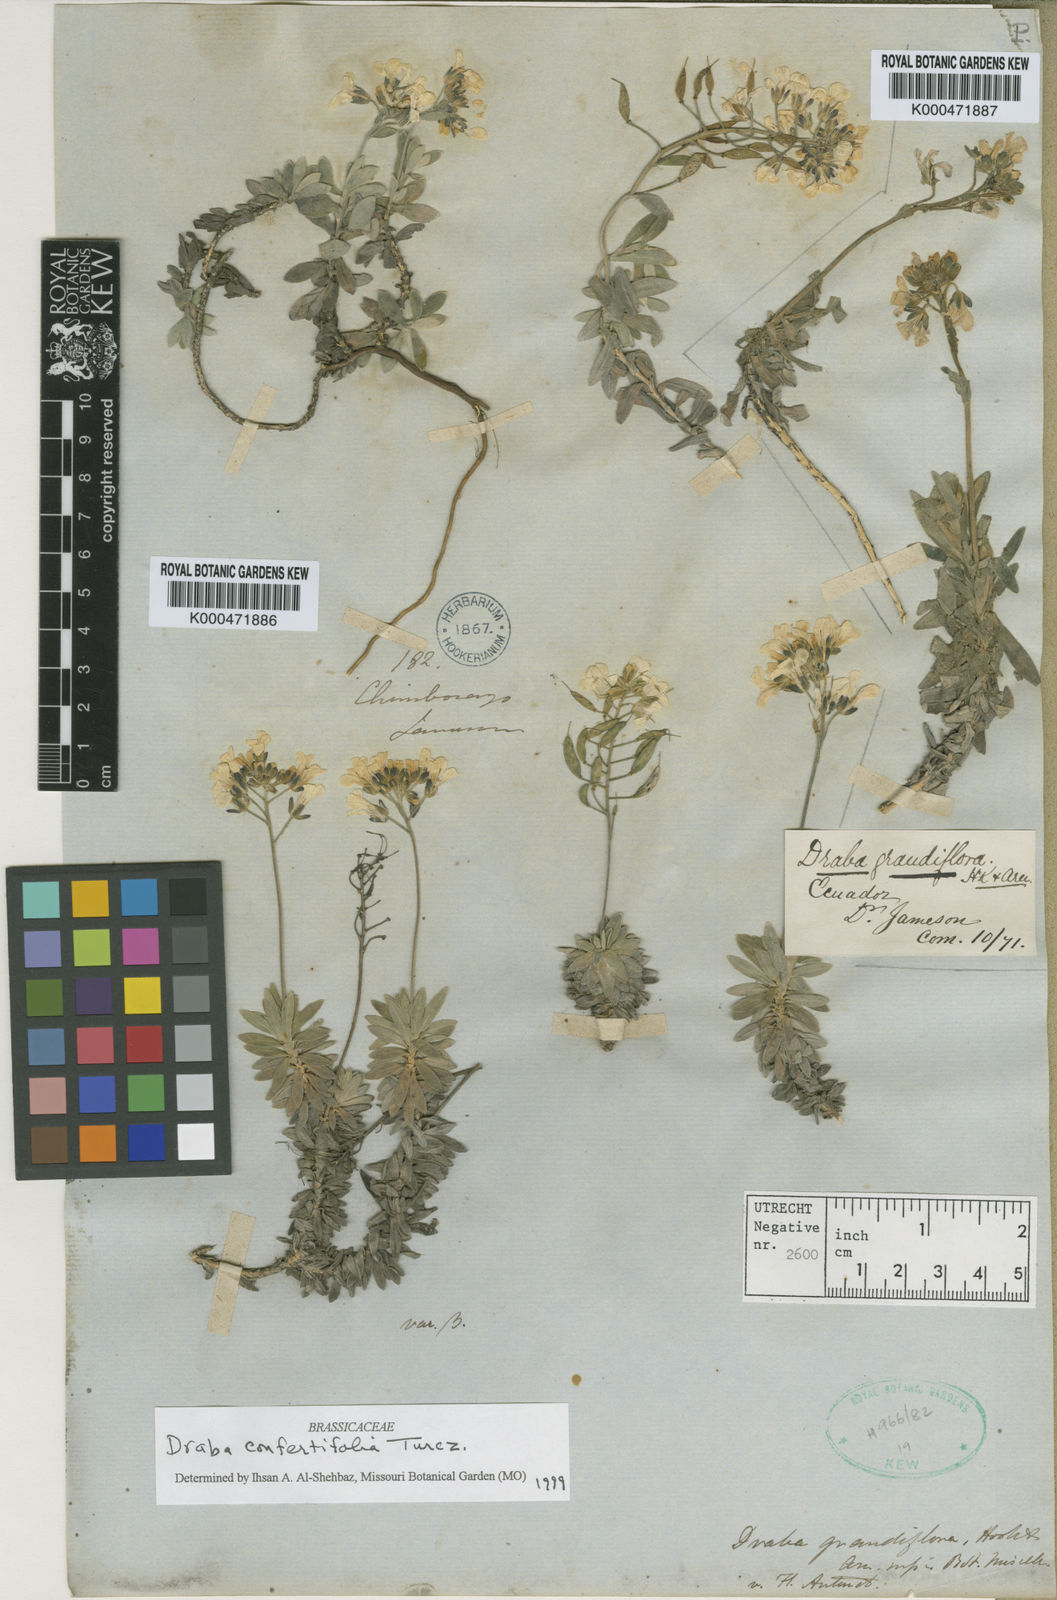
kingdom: Plantae
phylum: Tracheophyta
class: Magnoliopsida
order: Brassicales
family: Brassicaceae
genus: Draba
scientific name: Draba
